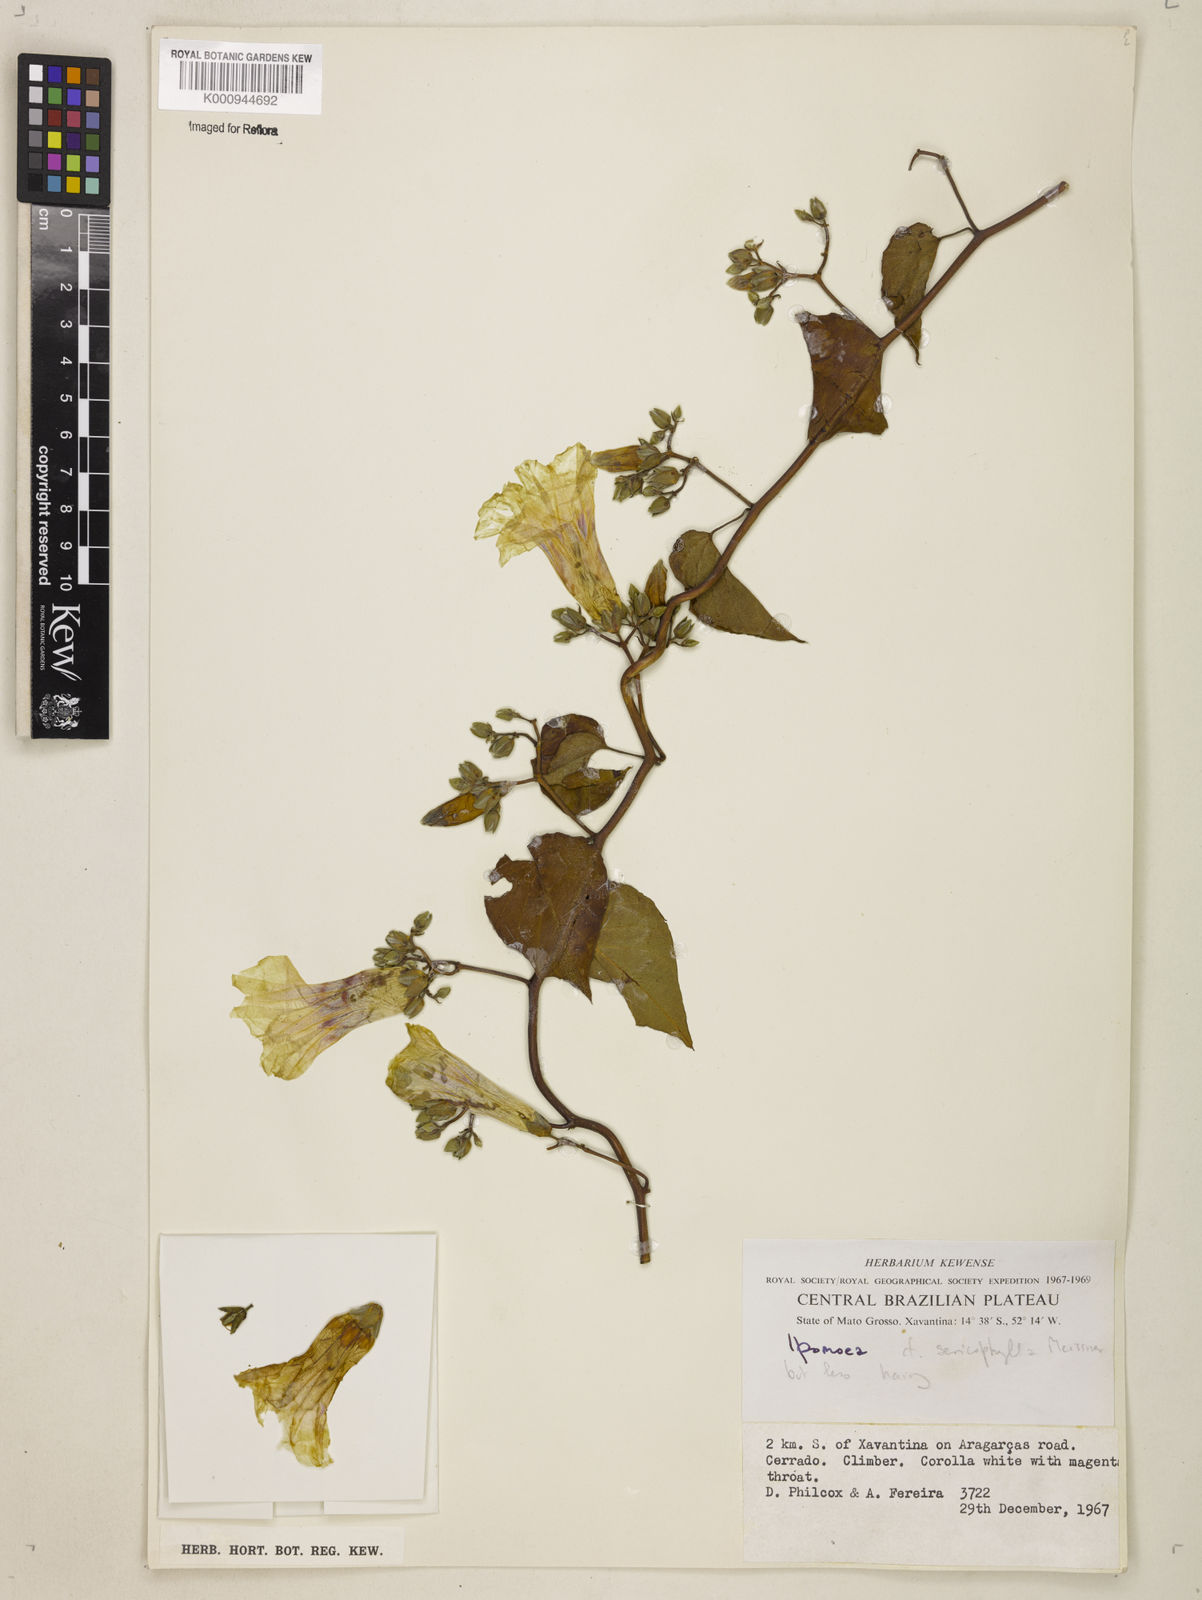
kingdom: Plantae
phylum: Tracheophyta
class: Magnoliopsida
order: Solanales
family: Convolvulaceae
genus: Ipomoea
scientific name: Ipomoea sericophylla
